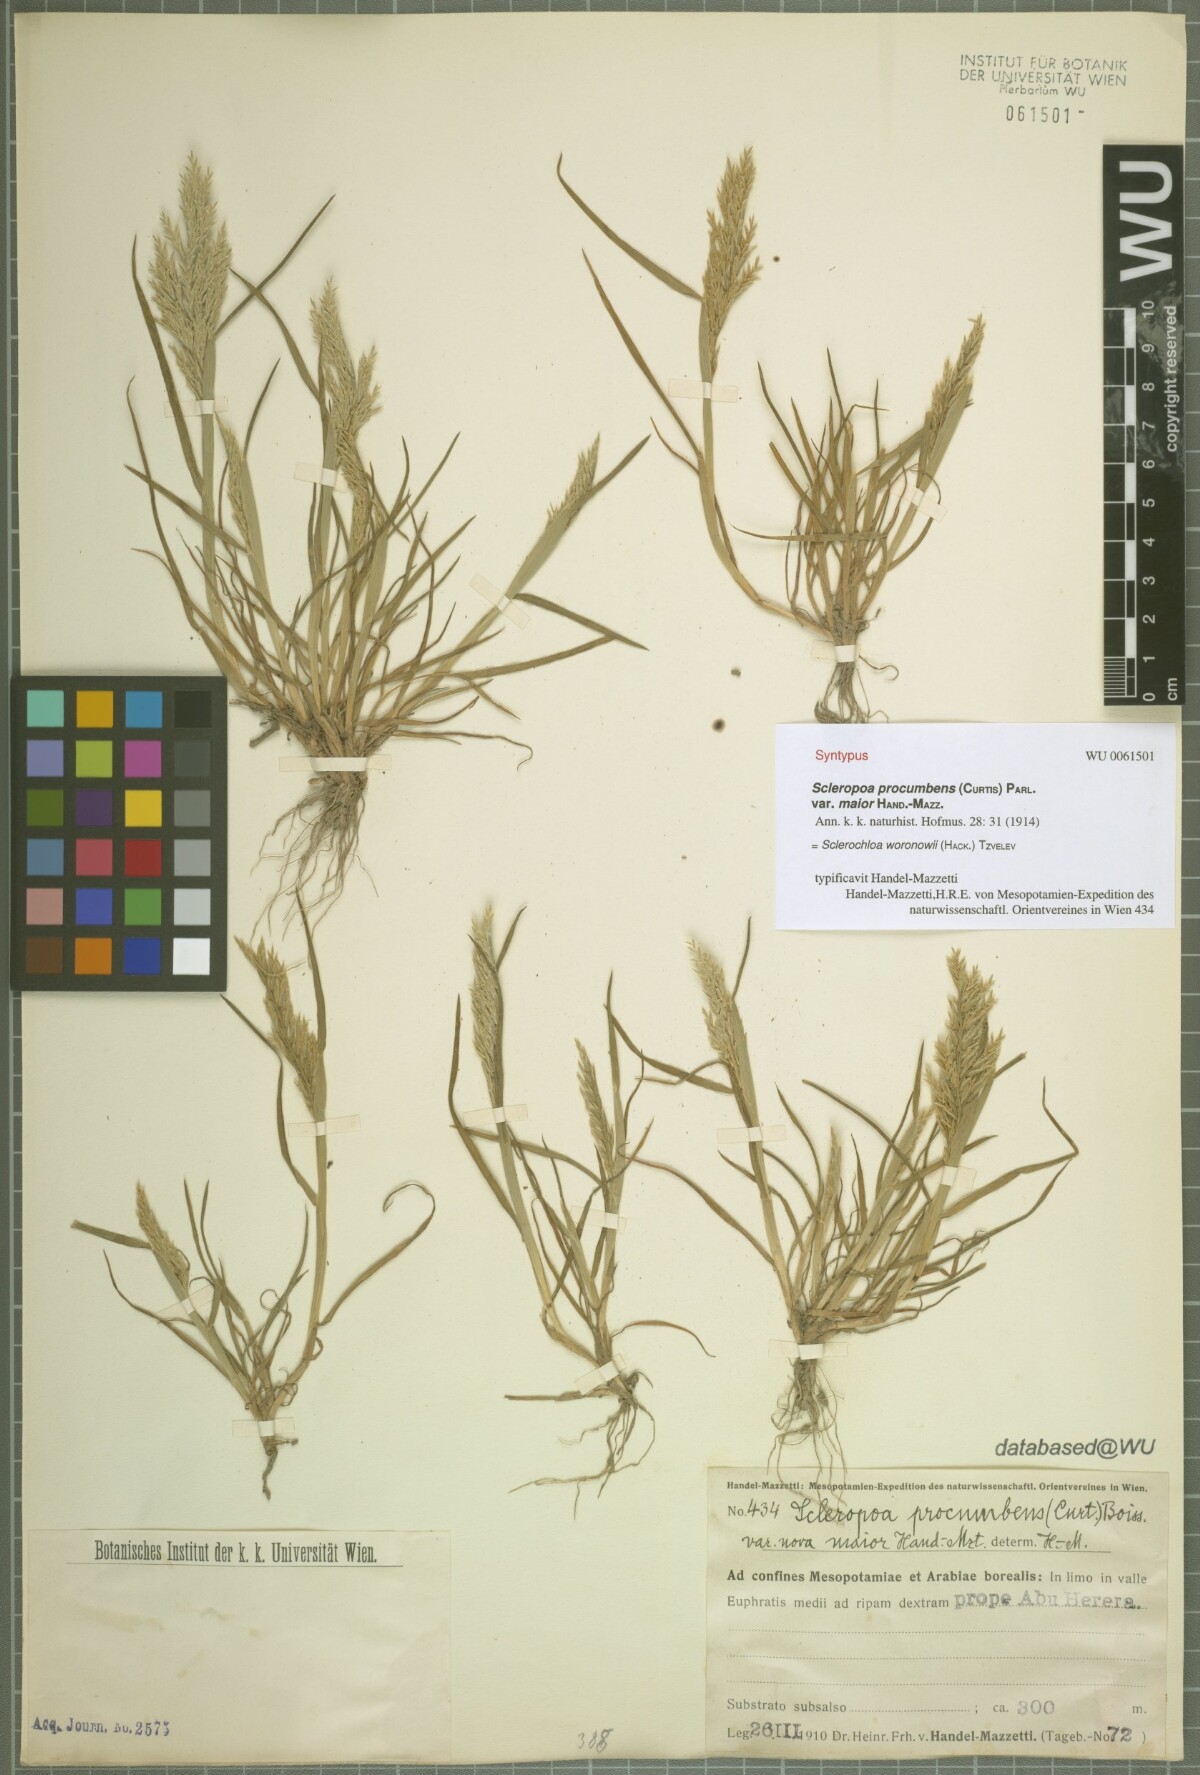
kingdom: Plantae
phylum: Tracheophyta
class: Liliopsida
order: Poales
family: Poaceae
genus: Sclerochloa
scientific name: Sclerochloa woronowii
